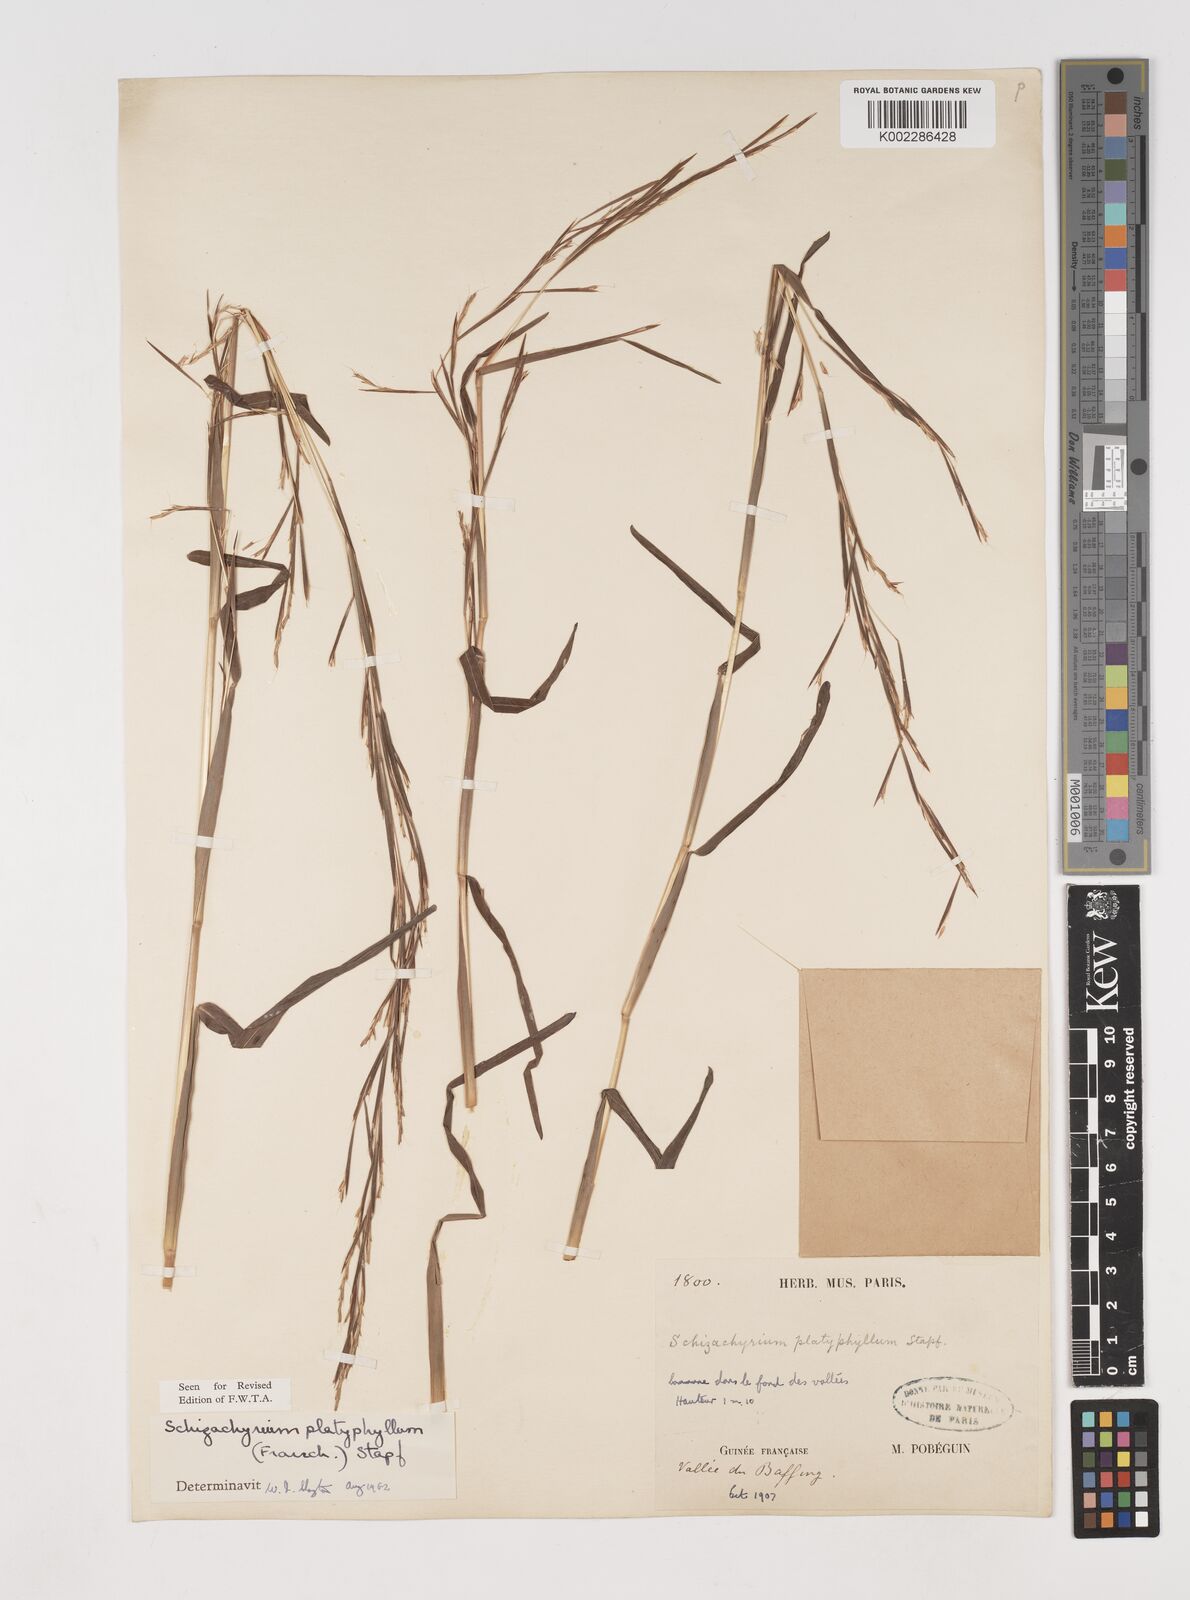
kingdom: Plantae
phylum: Tracheophyta
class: Liliopsida
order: Poales
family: Poaceae
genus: Schizachyrium
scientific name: Schizachyrium platyphyllum
